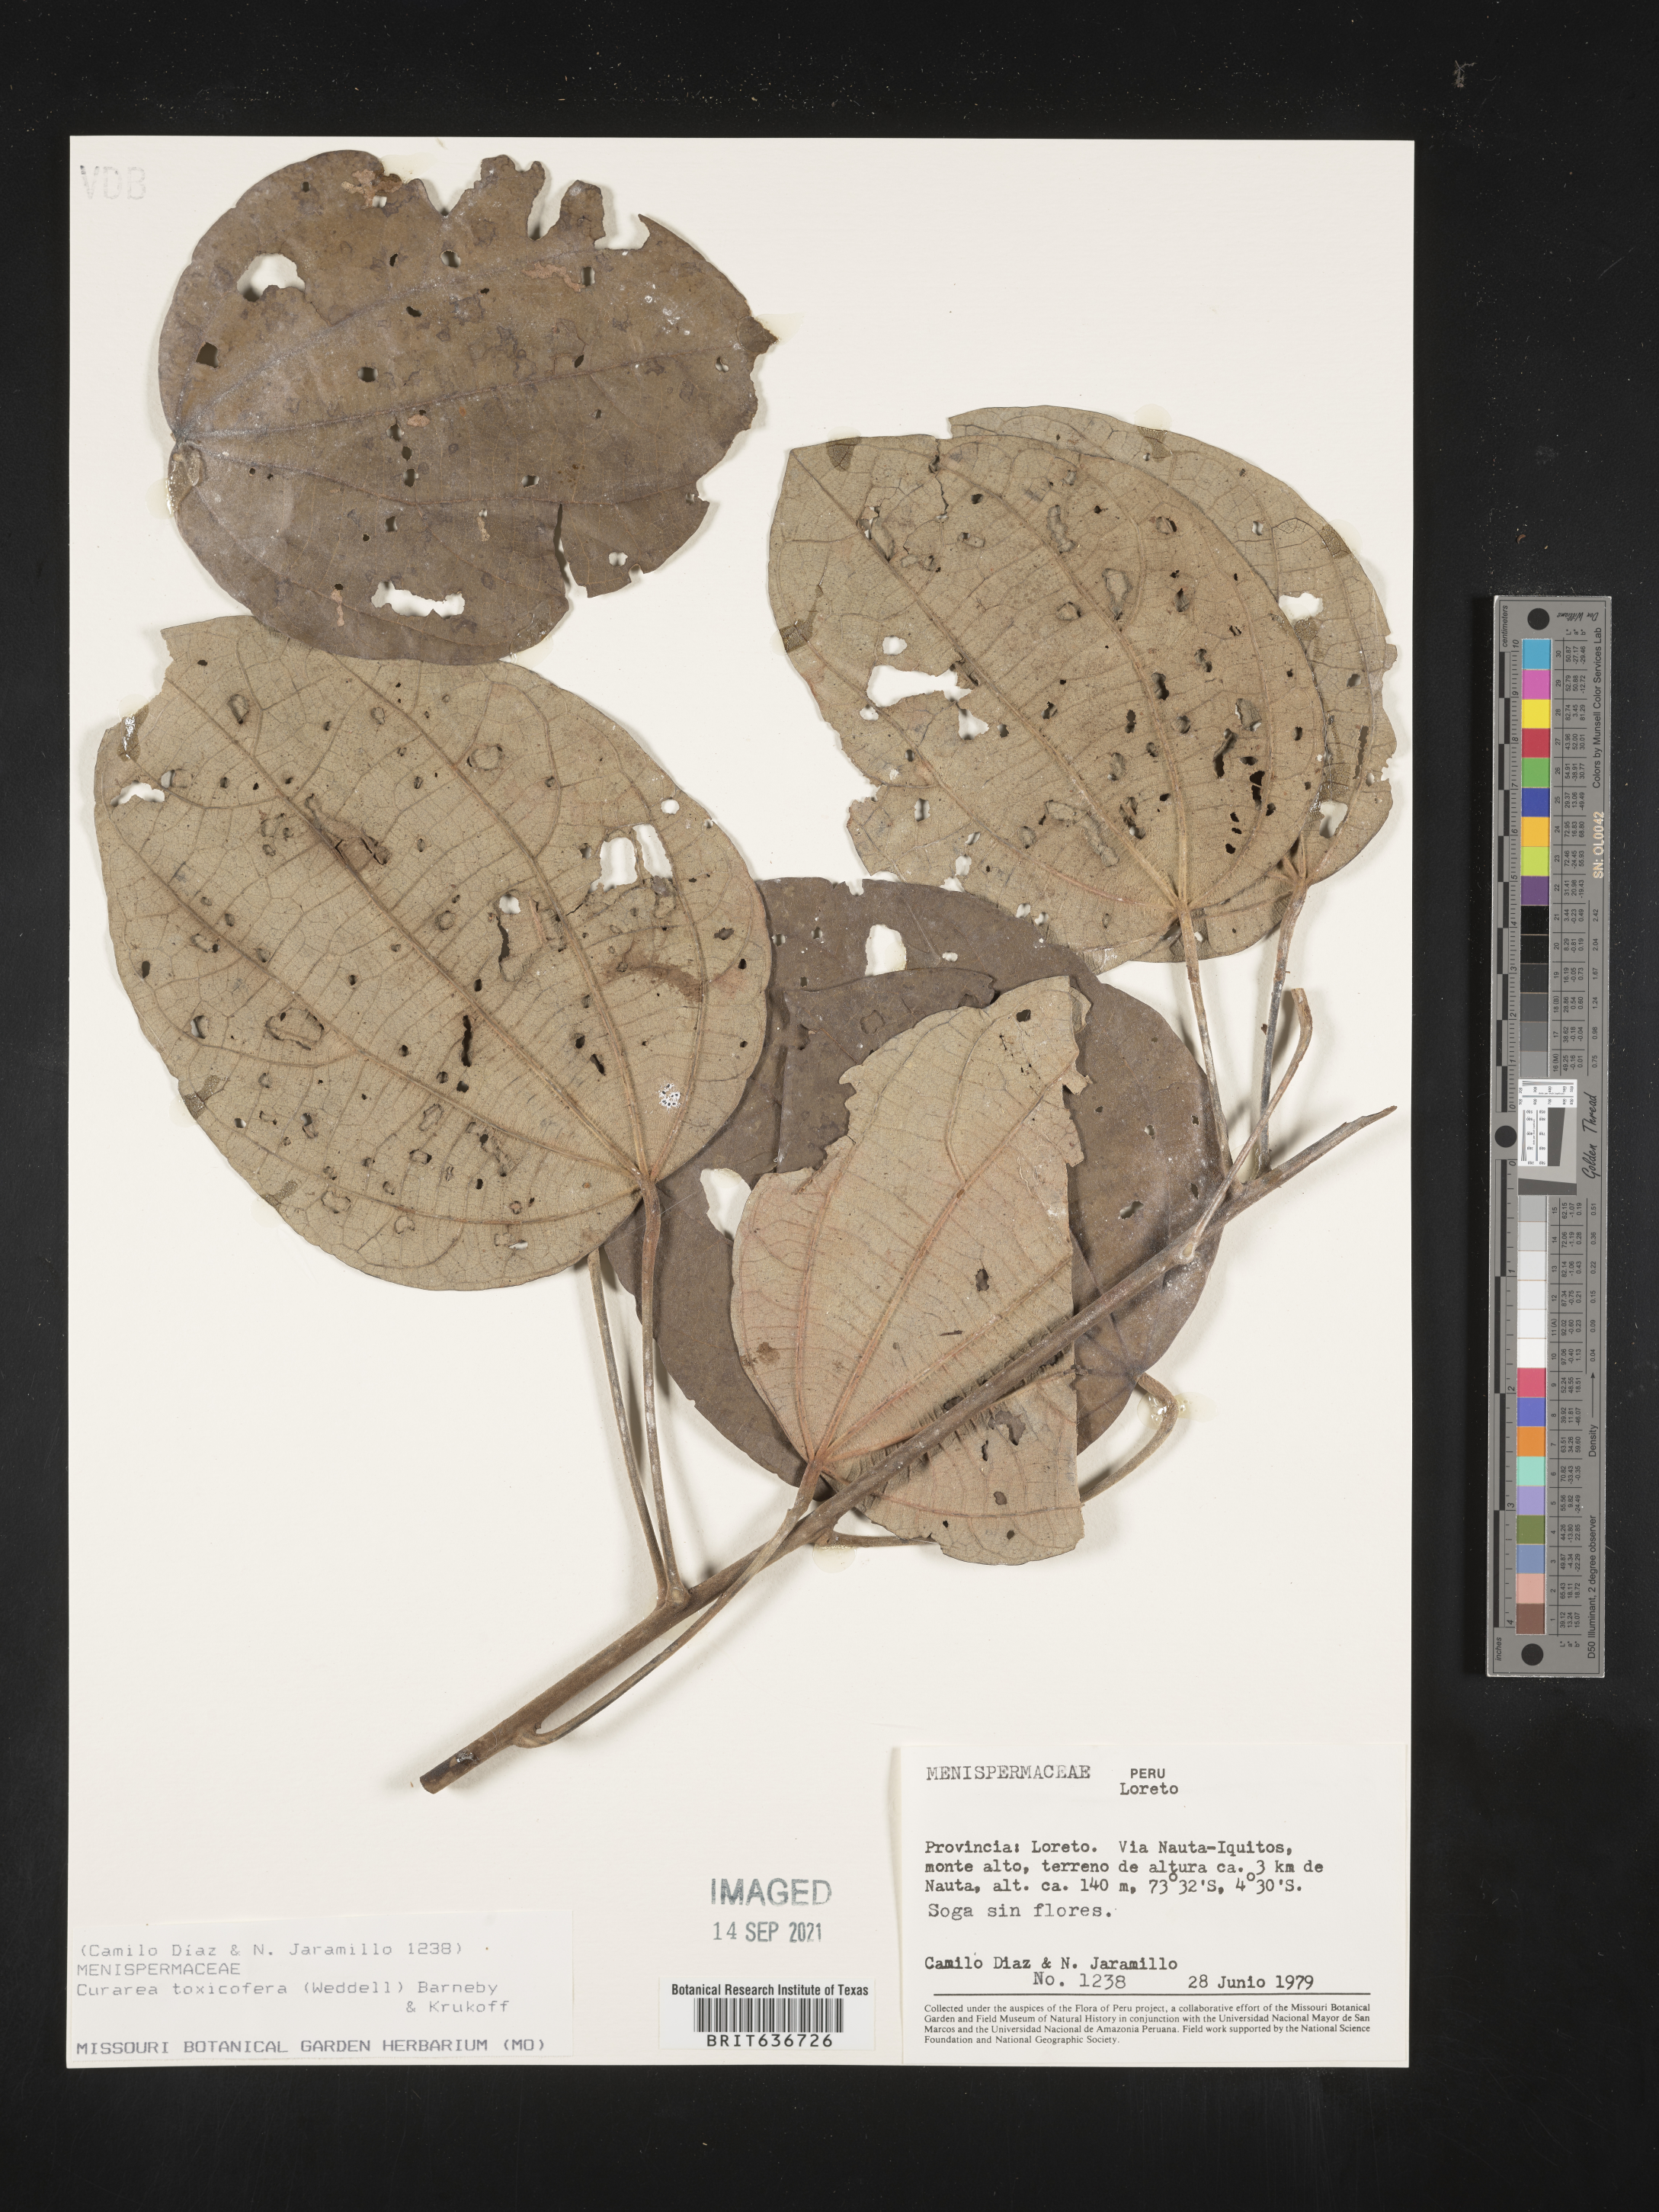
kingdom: Plantae
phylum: Tracheophyta
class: Magnoliopsida
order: Ranunculales
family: Menispermaceae
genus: Curarea
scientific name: Curarea
